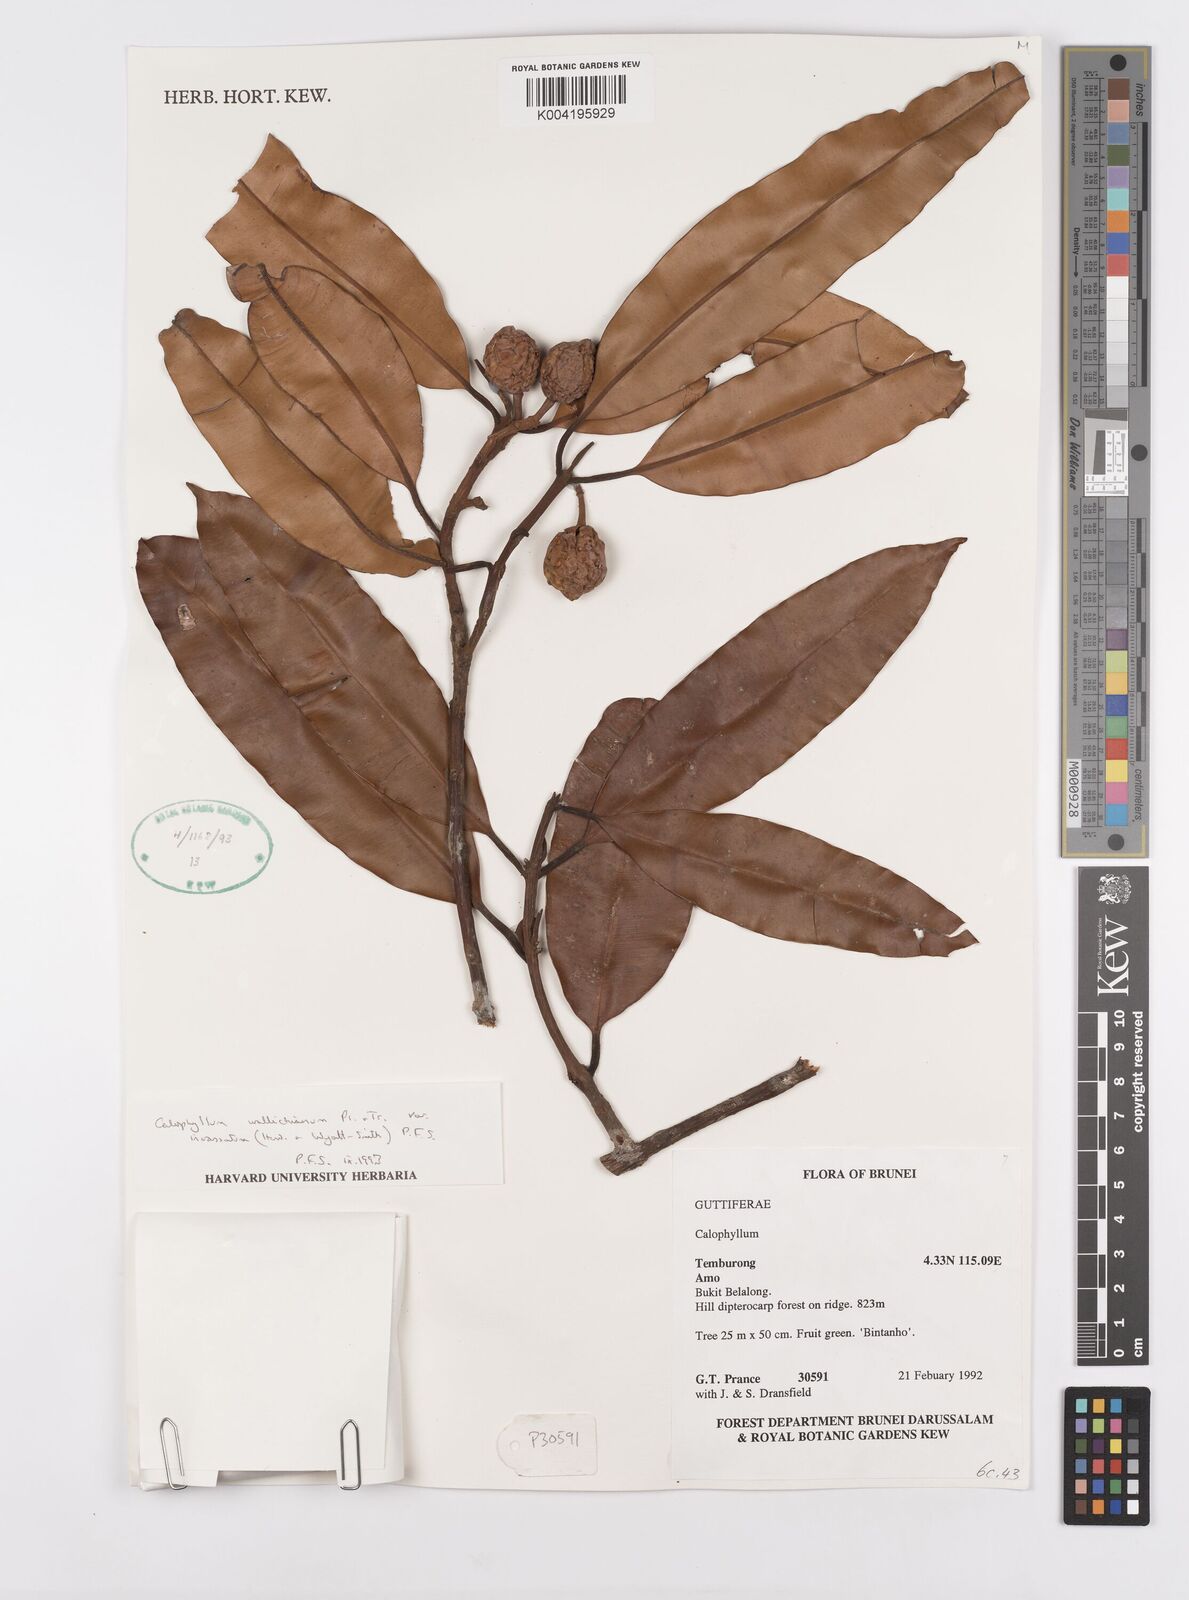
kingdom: Plantae
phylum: Tracheophyta
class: Magnoliopsida
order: Malpighiales
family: Calophyllaceae
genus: Calophyllum
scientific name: Calophyllum wallichiana
